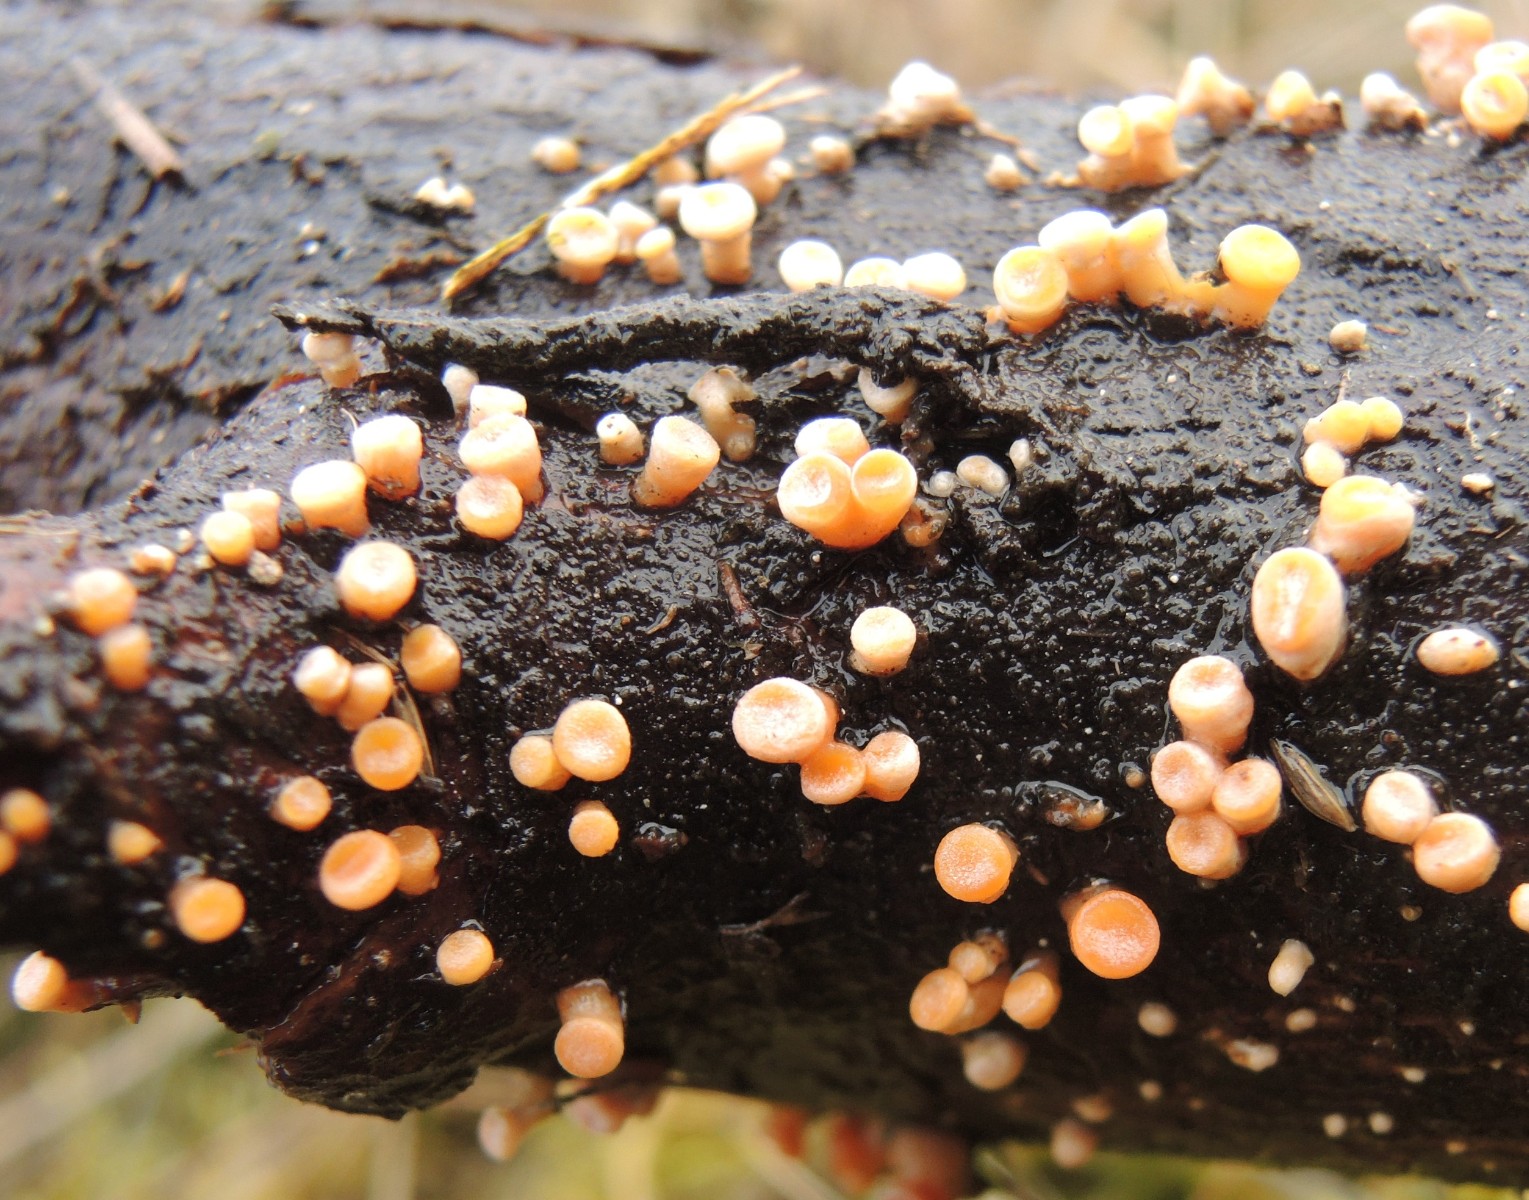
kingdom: Fungi
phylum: Basidiomycota
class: Dacrymycetes
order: Dacrymycetales
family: Dacrymycetaceae
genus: Ditiola
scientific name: Ditiola radicata
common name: rod-tåresvamp
